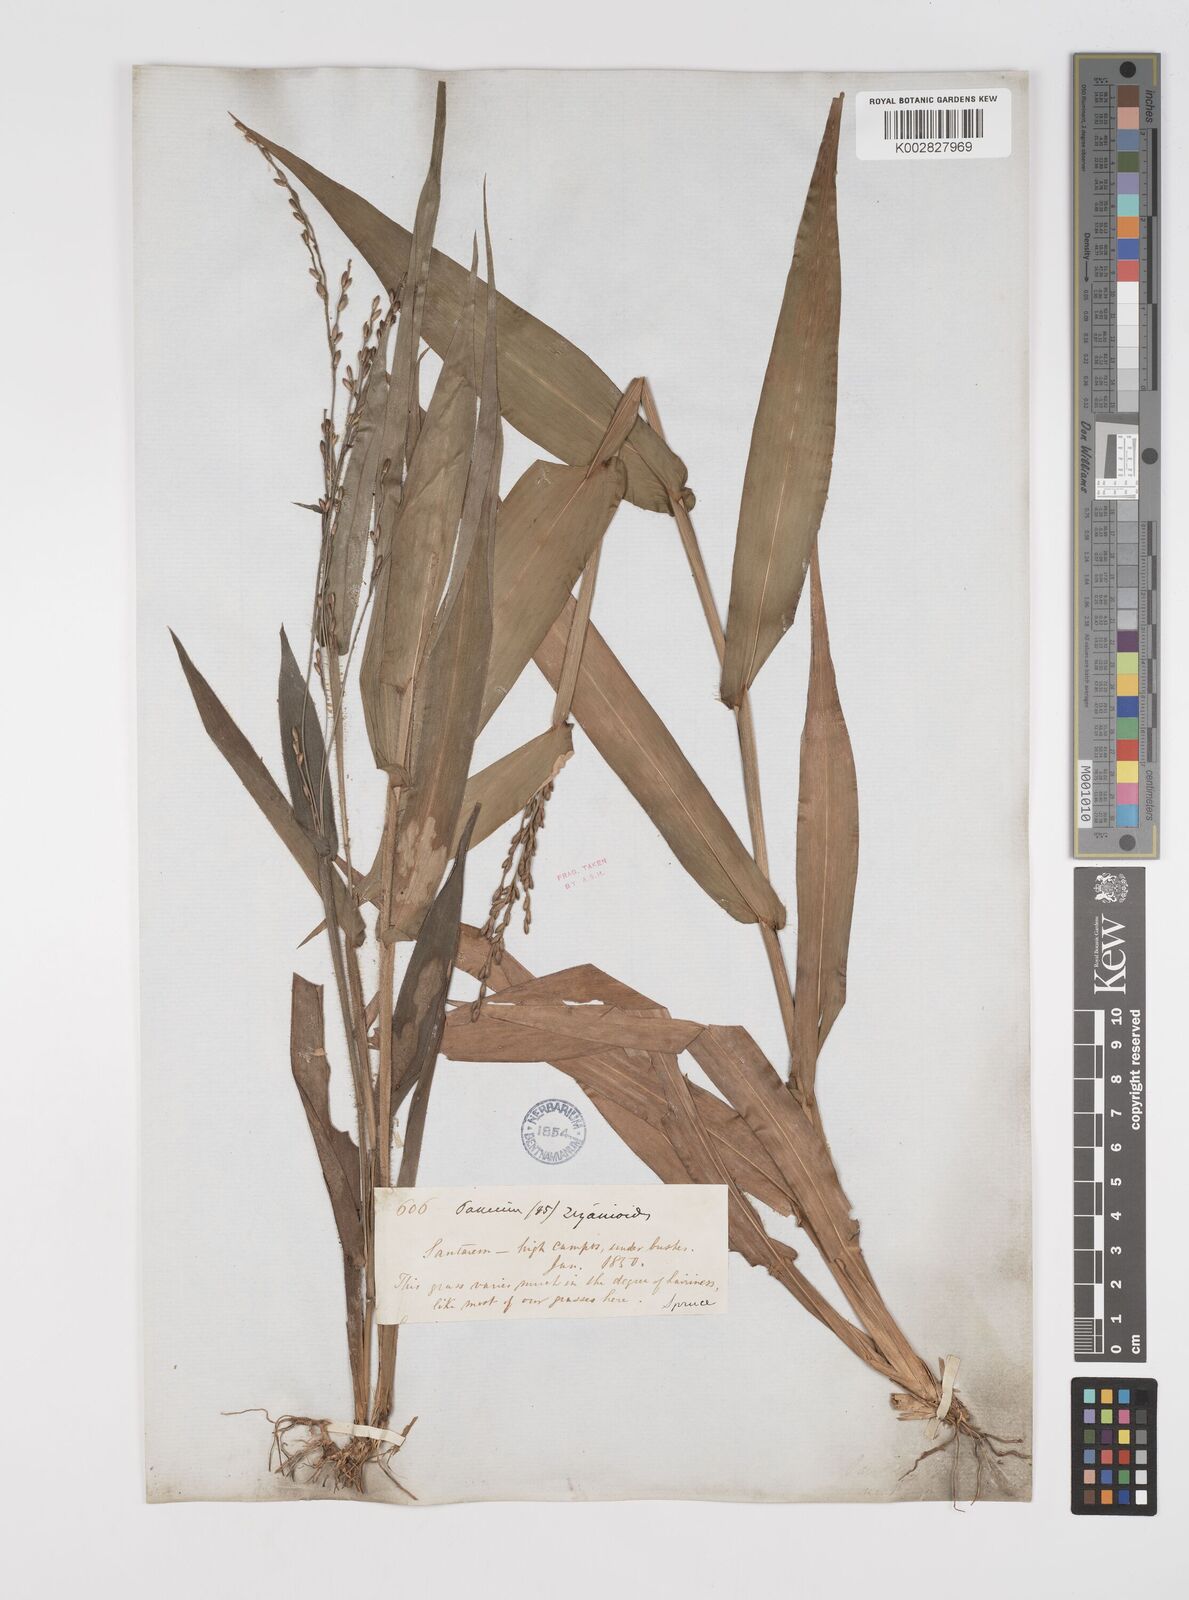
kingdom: Plantae
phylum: Tracheophyta
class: Liliopsida
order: Poales
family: Poaceae
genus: Streptostachys
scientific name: Streptostachys asperifolia
